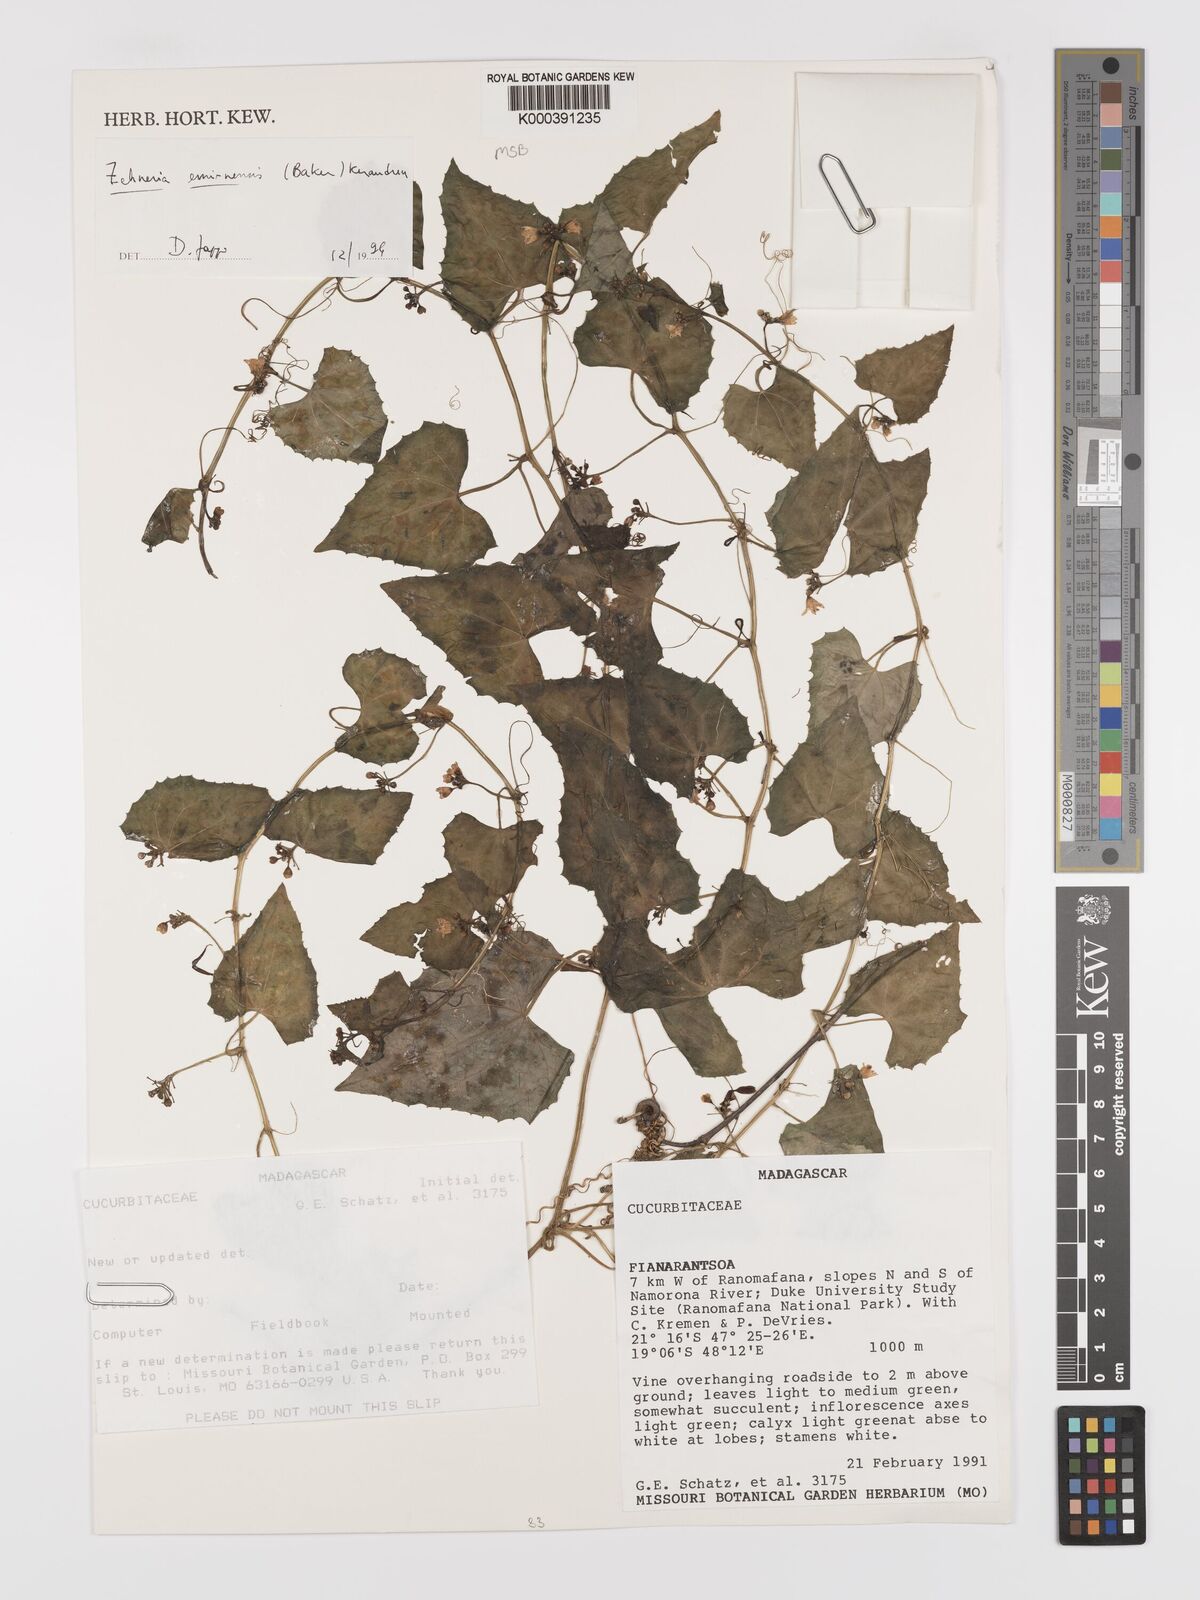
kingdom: Plantae
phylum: Tracheophyta
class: Magnoliopsida
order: Cucurbitales
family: Cucurbitaceae
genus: Zehneria
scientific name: Zehneria emirnensis
